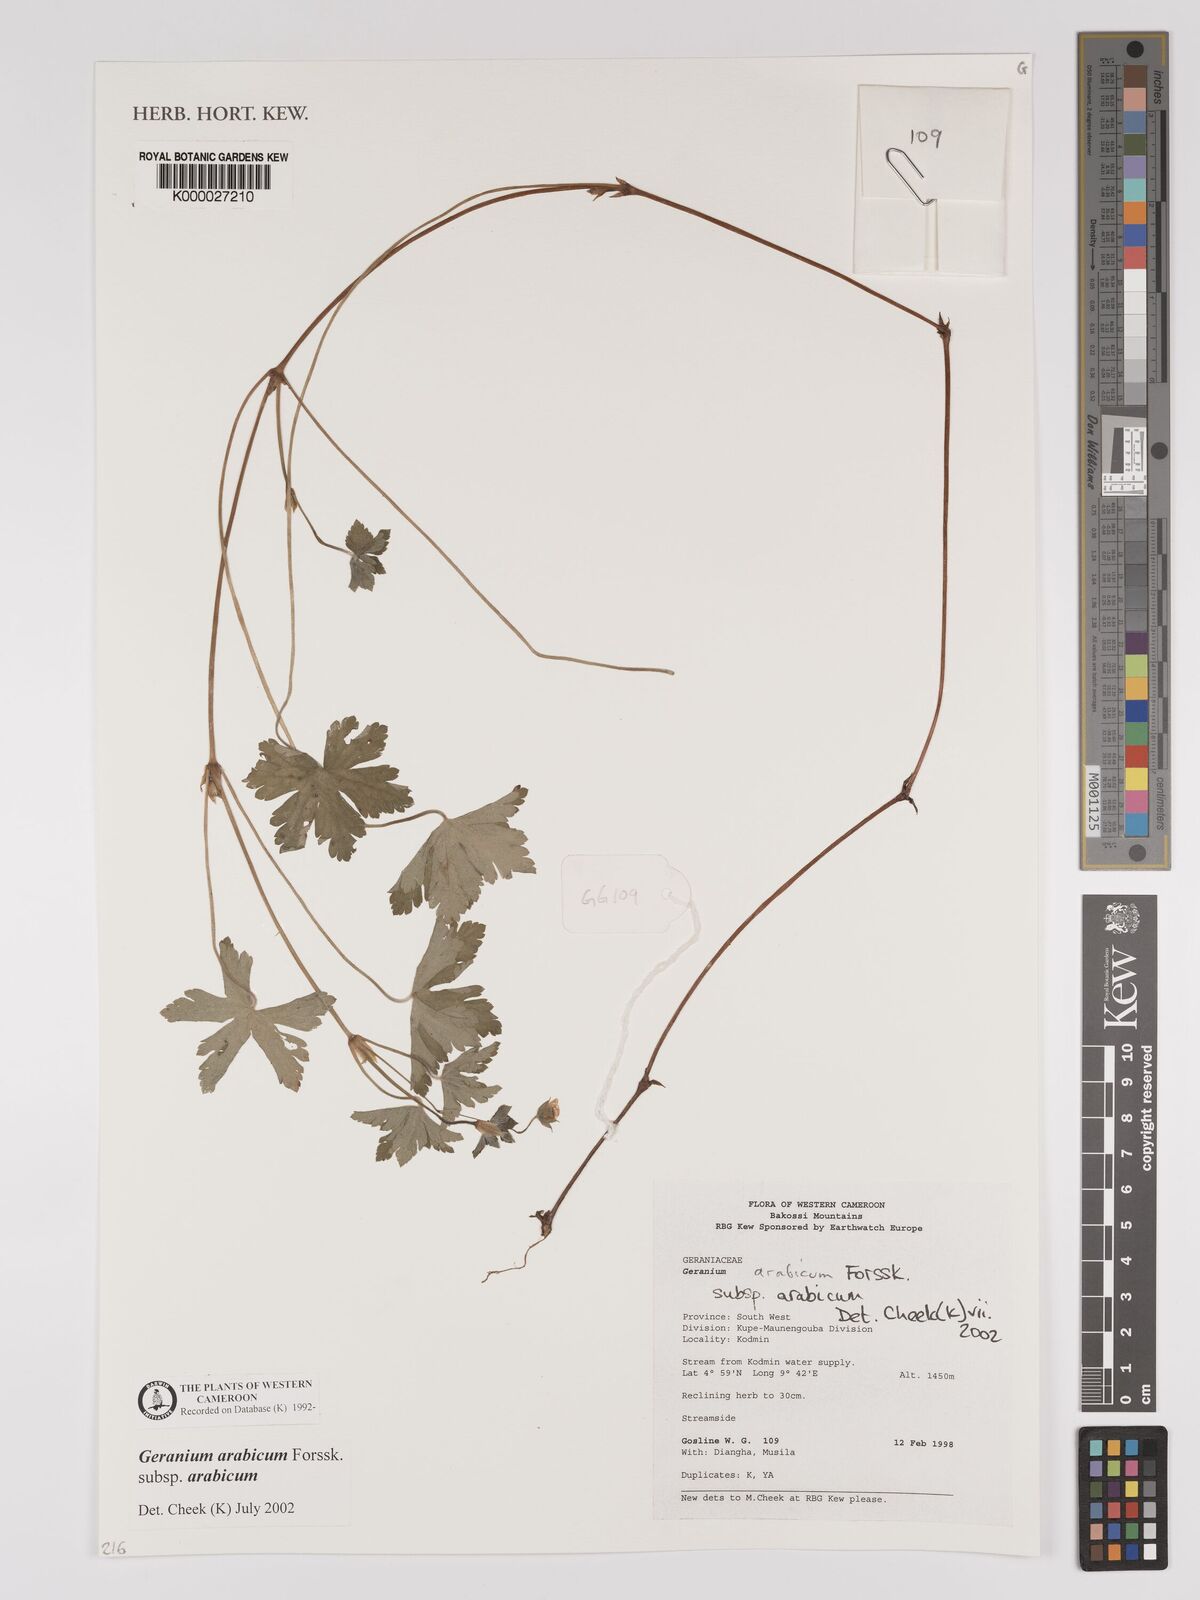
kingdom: Plantae
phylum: Tracheophyta
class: Magnoliopsida
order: Geraniales
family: Geraniaceae
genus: Geranium
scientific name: Geranium arabicum
